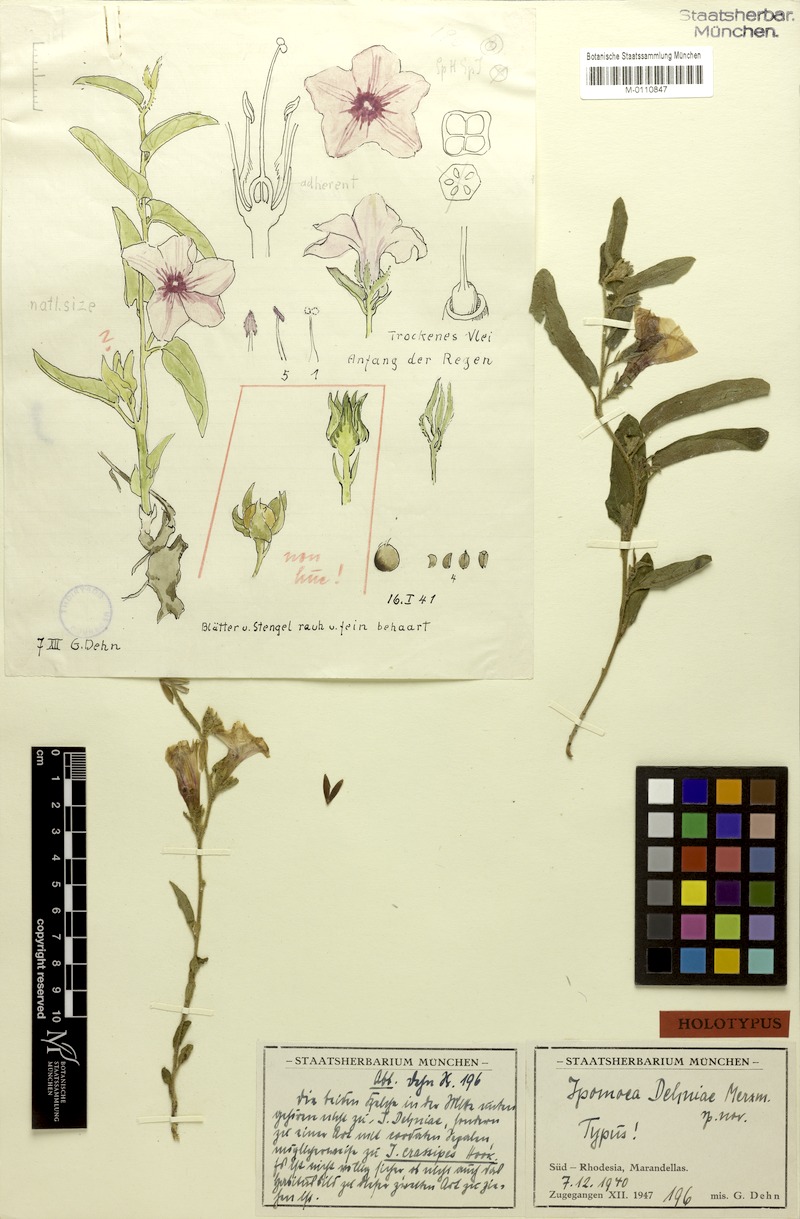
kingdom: Plantae
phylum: Tracheophyta
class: Magnoliopsida
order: Solanales
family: Convolvulaceae
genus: Ipomoea
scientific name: Ipomoea fulvicaulis
